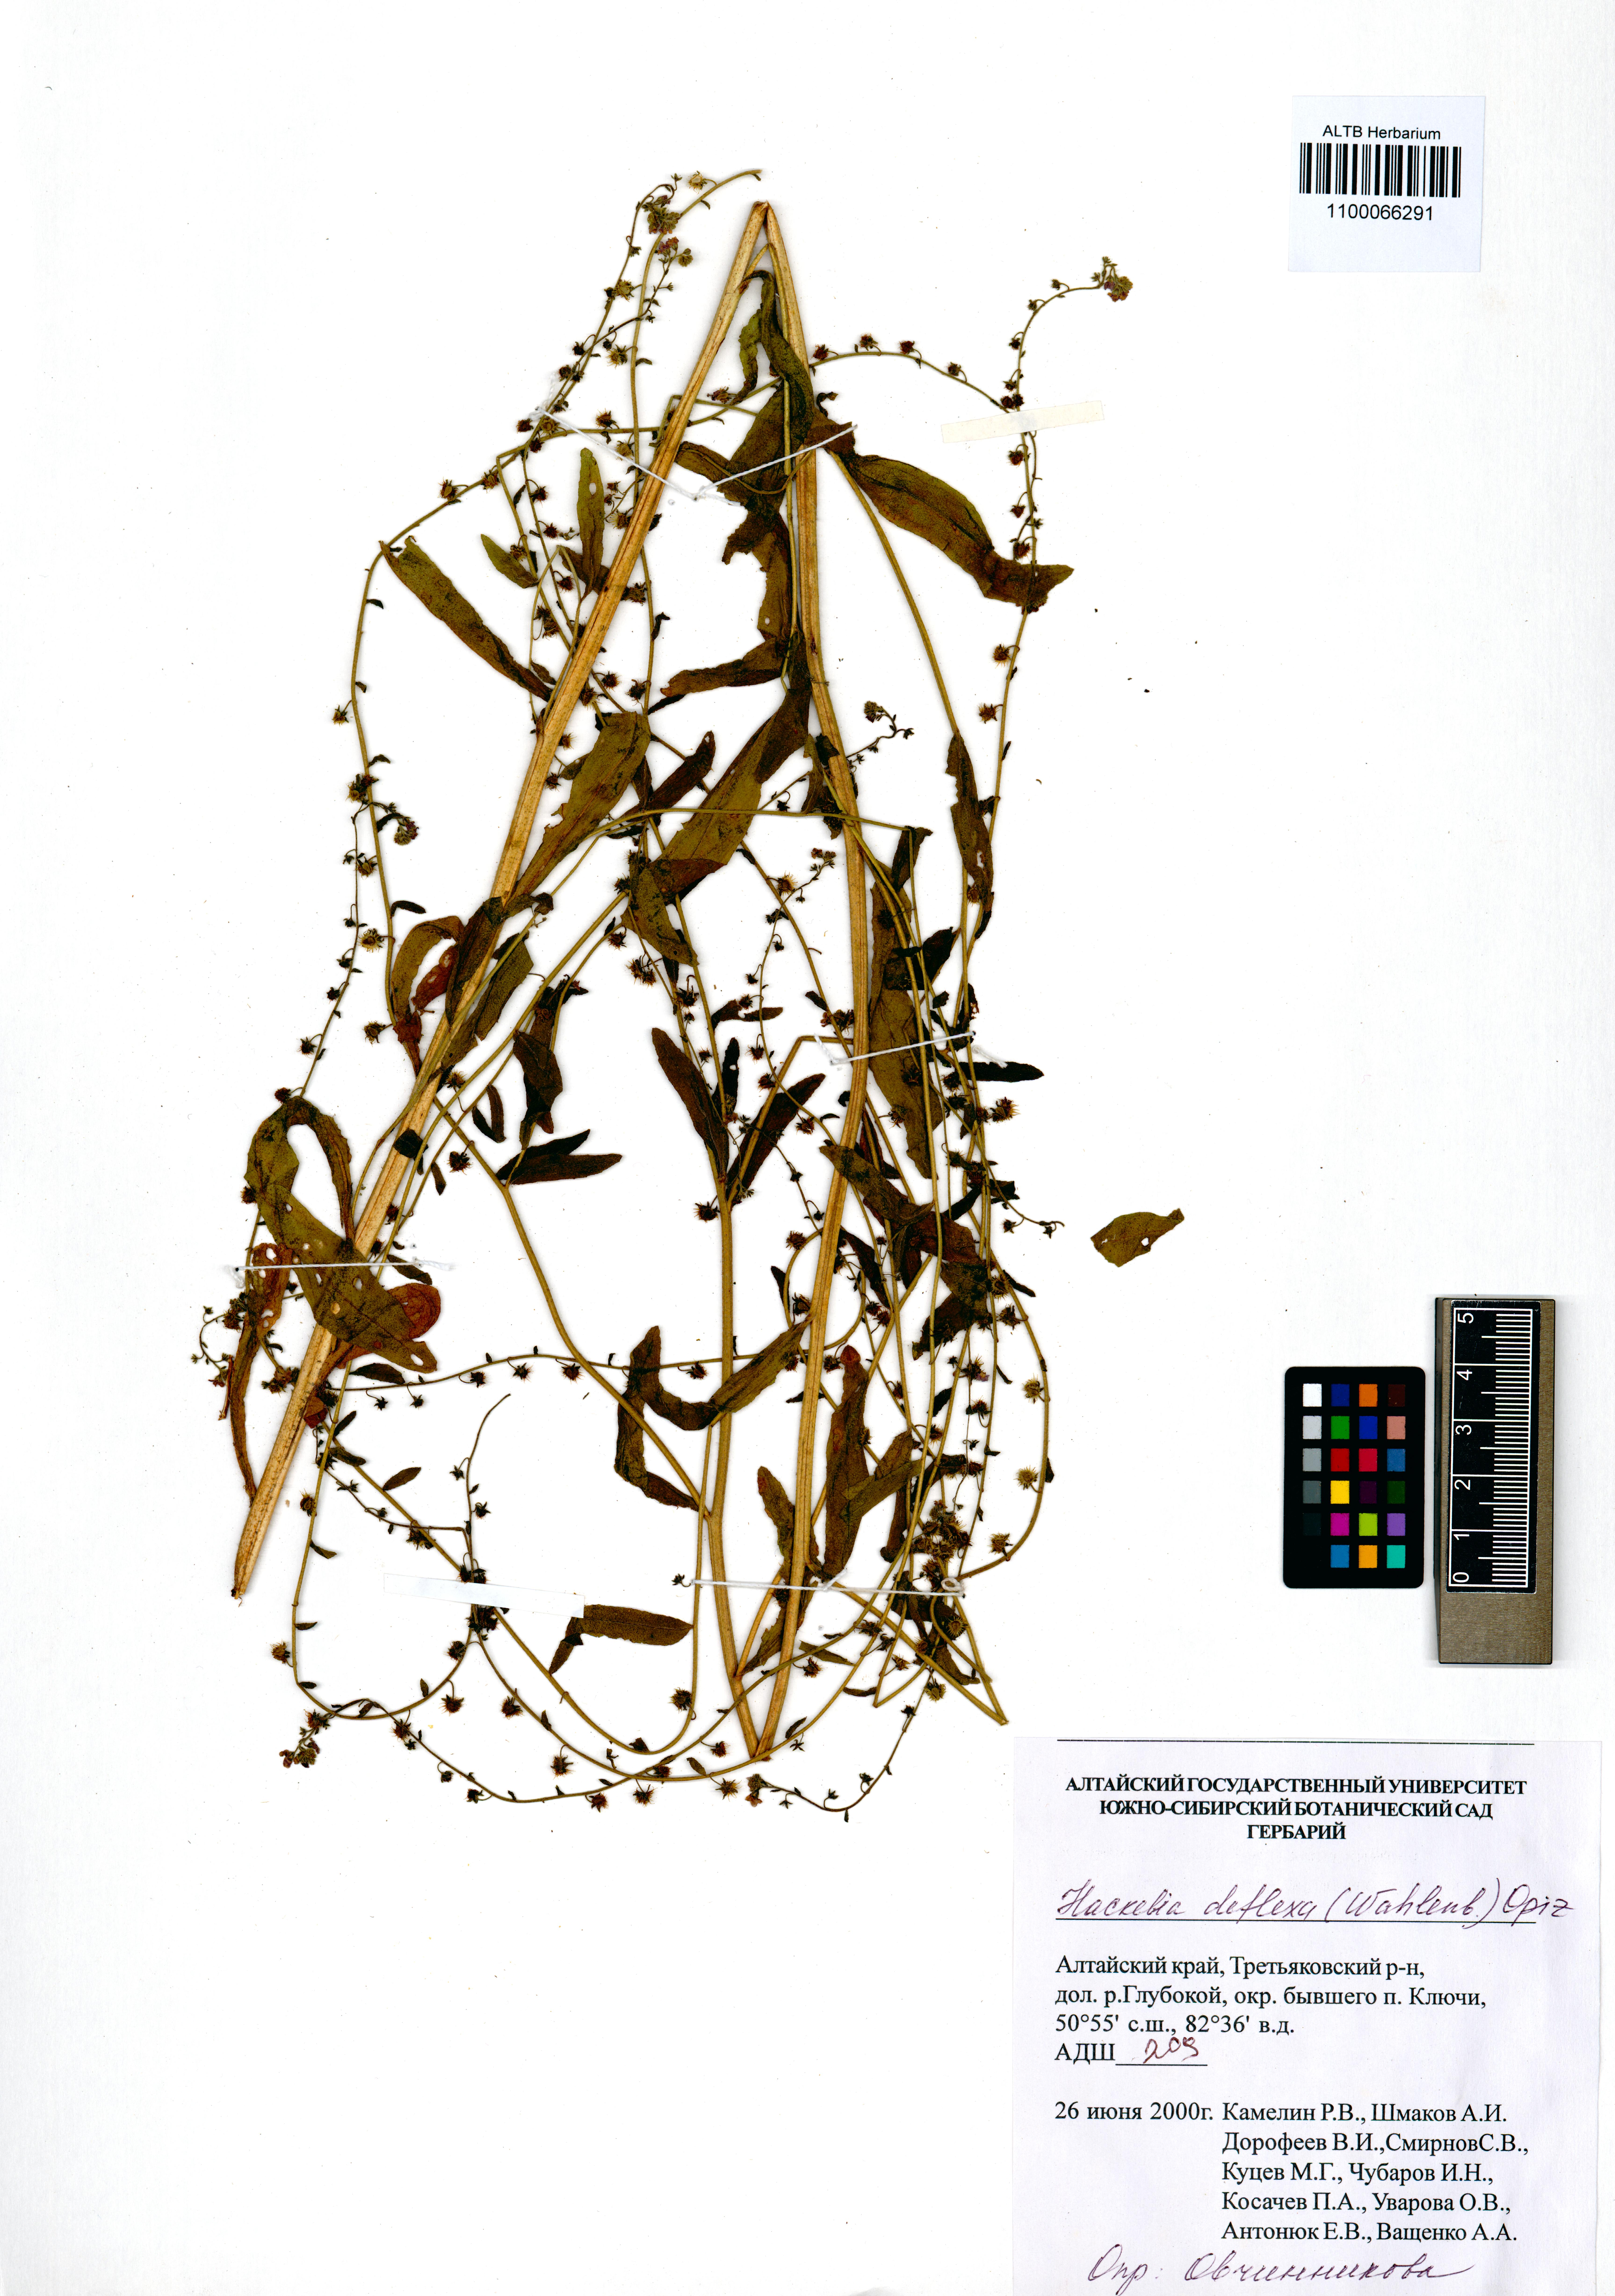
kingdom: Plantae
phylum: Tracheophyta
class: Magnoliopsida
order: Boraginales
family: Boraginaceae
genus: Hackelia
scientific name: Hackelia deflexa
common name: Nodding stickseed
